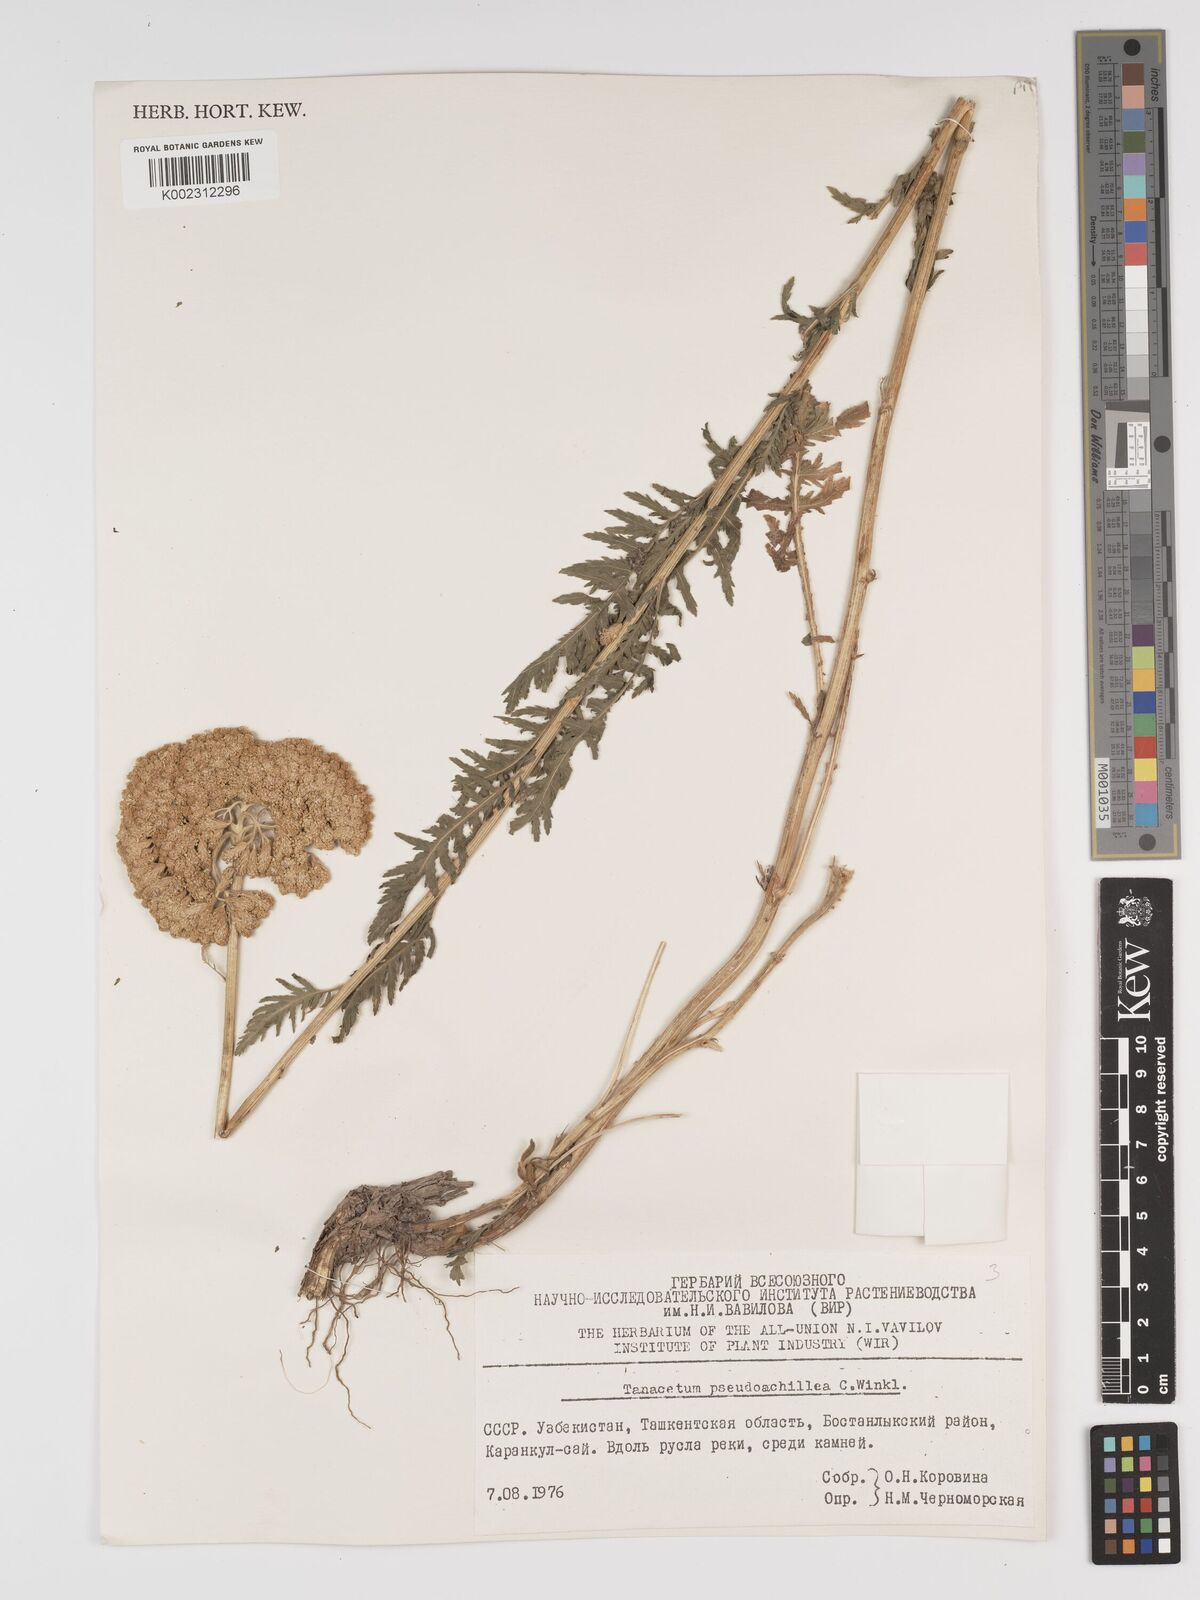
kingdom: Plantae
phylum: Tracheophyta
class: Magnoliopsida
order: Asterales
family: Asteraceae
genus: Lepidolopsis
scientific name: Lepidolopsis pseudoachillea
